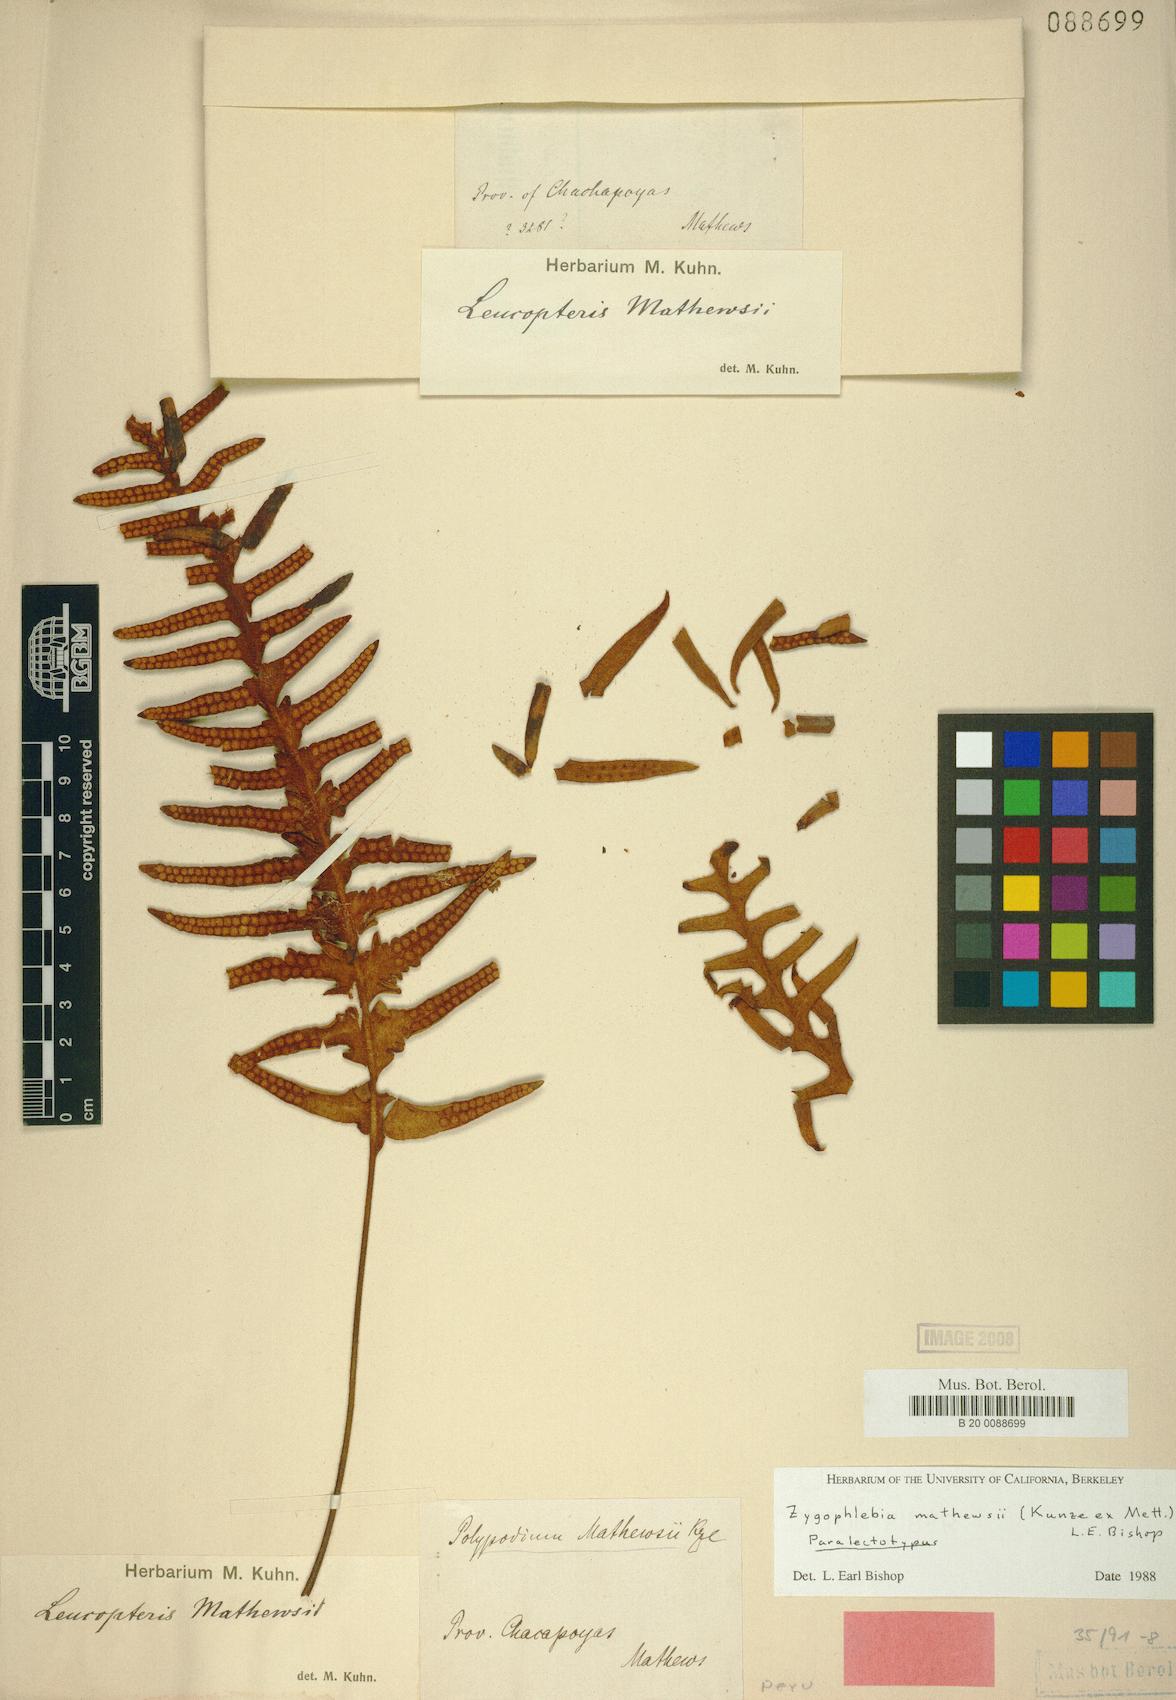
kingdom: Plantae
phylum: Tracheophyta
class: Polypodiopsida
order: Polypodiales
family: Polypodiaceae
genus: Enterosora
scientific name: Enterosora mathewsii
